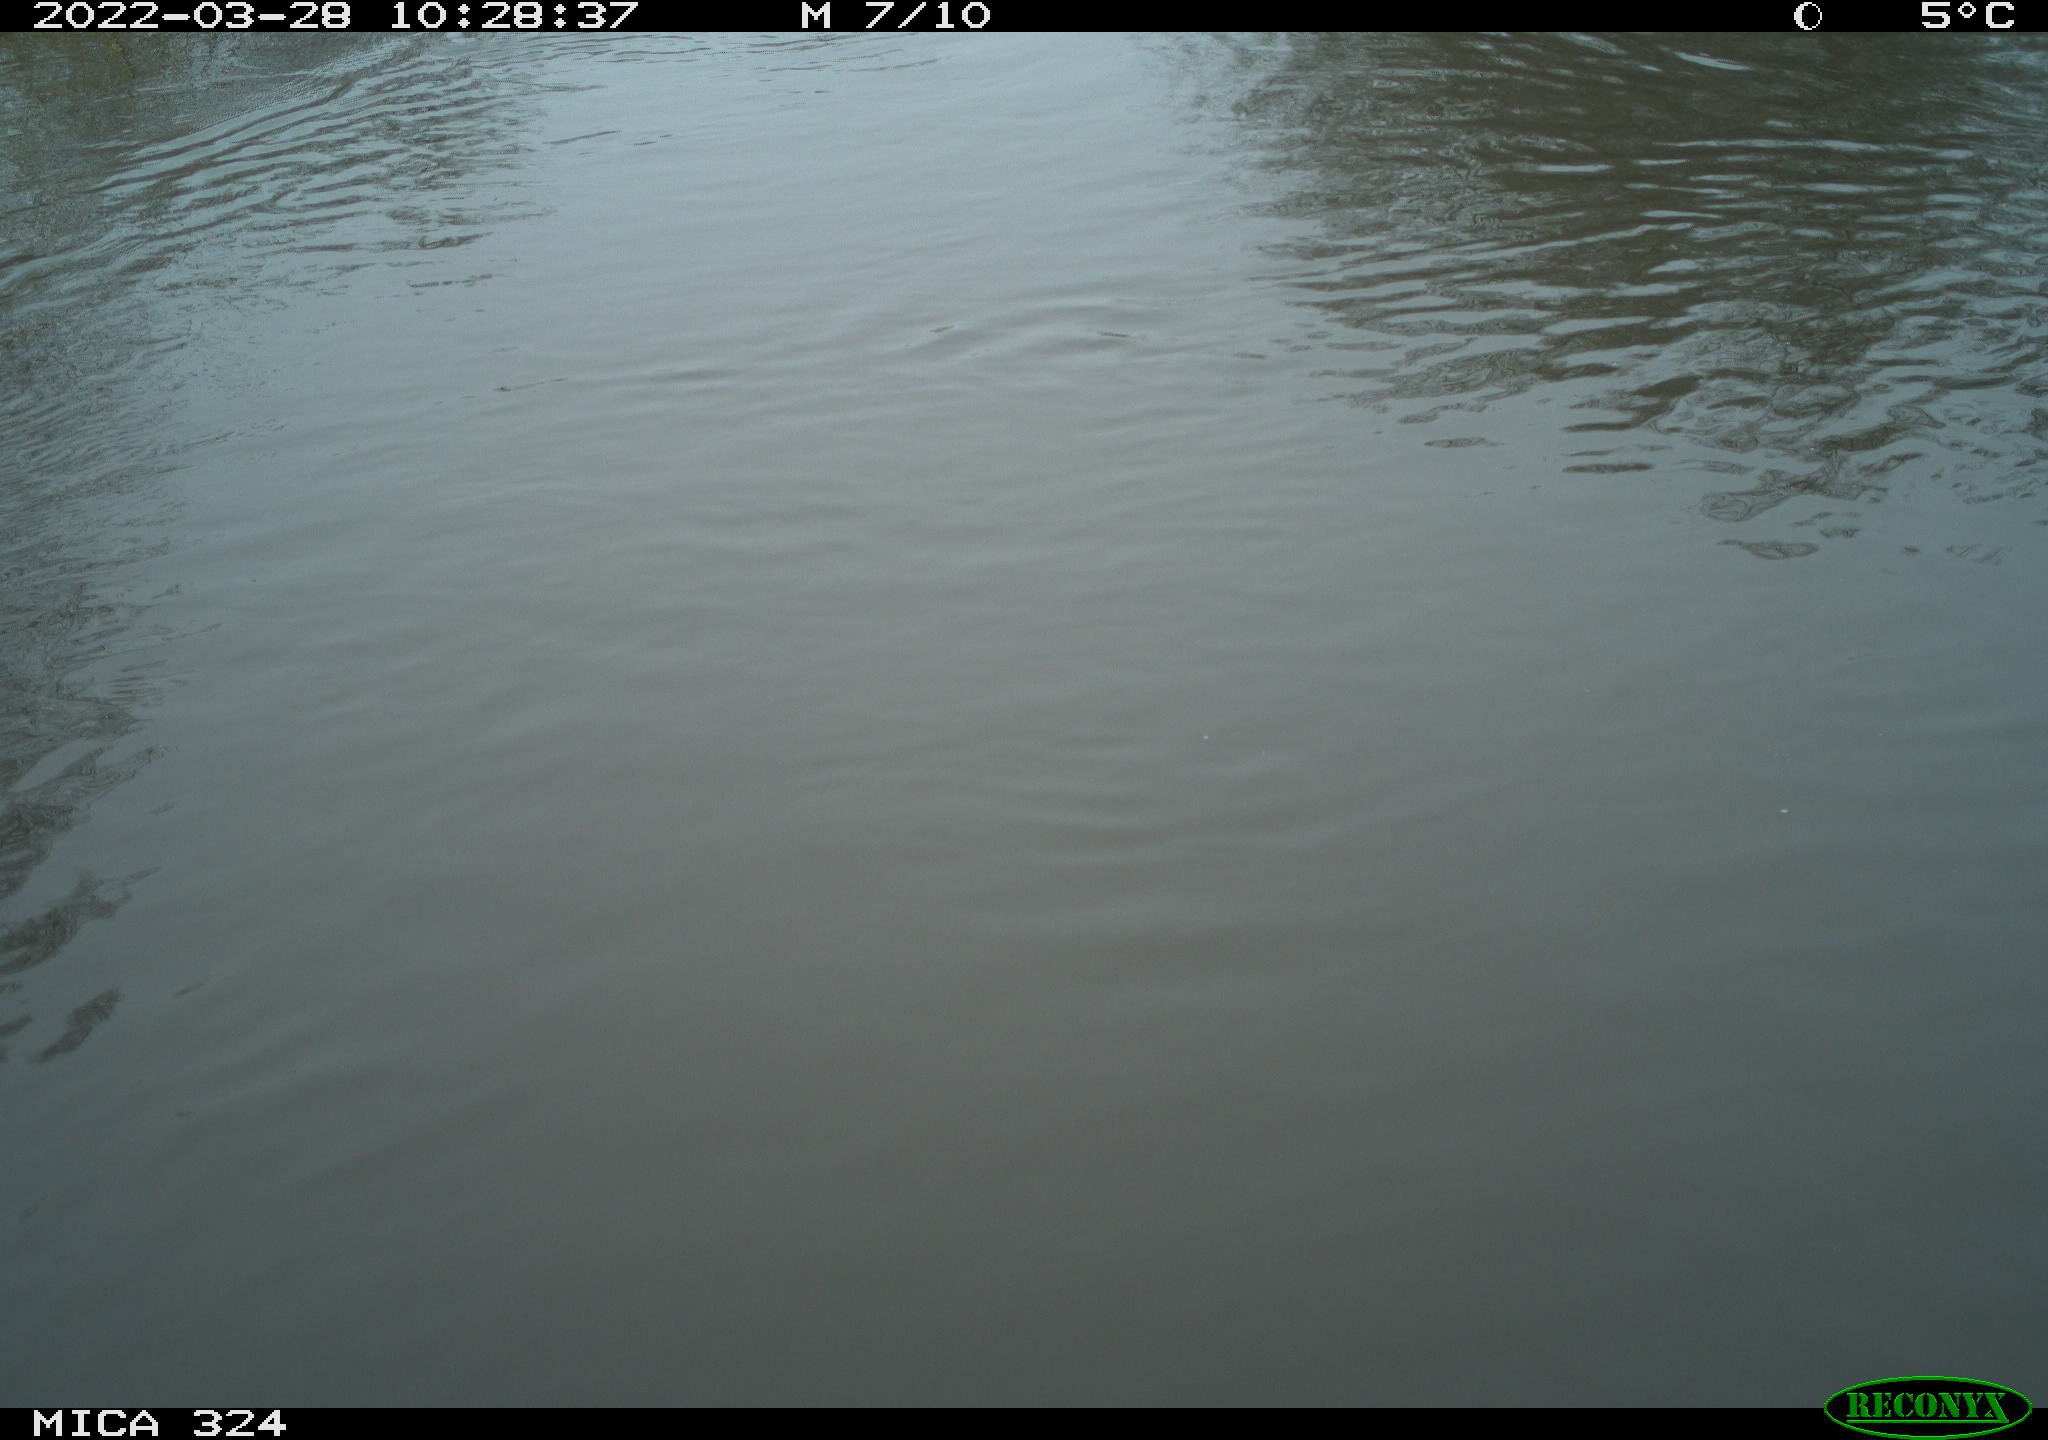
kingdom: Animalia
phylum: Chordata
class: Mammalia
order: Rodentia
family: Cricetidae
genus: Ondatra
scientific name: Ondatra zibethicus
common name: Muskrat
